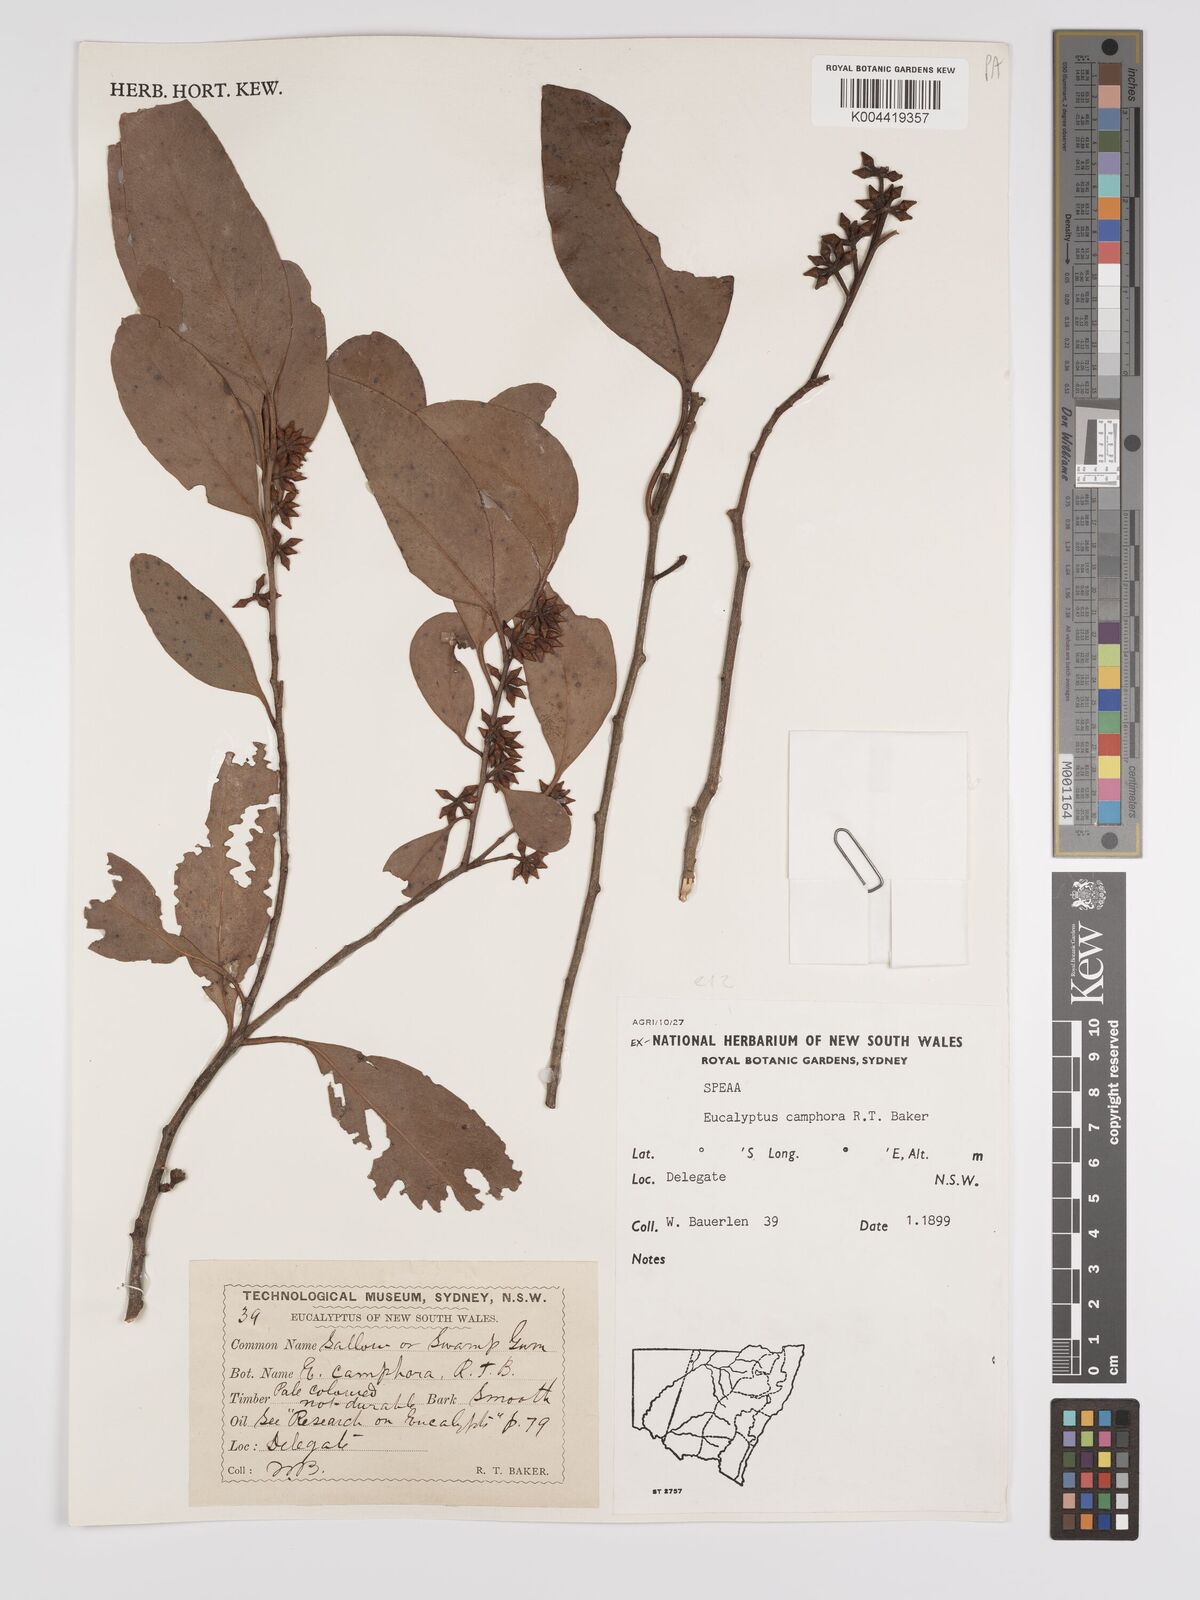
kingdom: Plantae
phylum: Tracheophyta
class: Magnoliopsida
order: Myrtales
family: Myrtaceae
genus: Eucalyptus
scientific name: Eucalyptus camphora
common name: Mountain swamp gum
